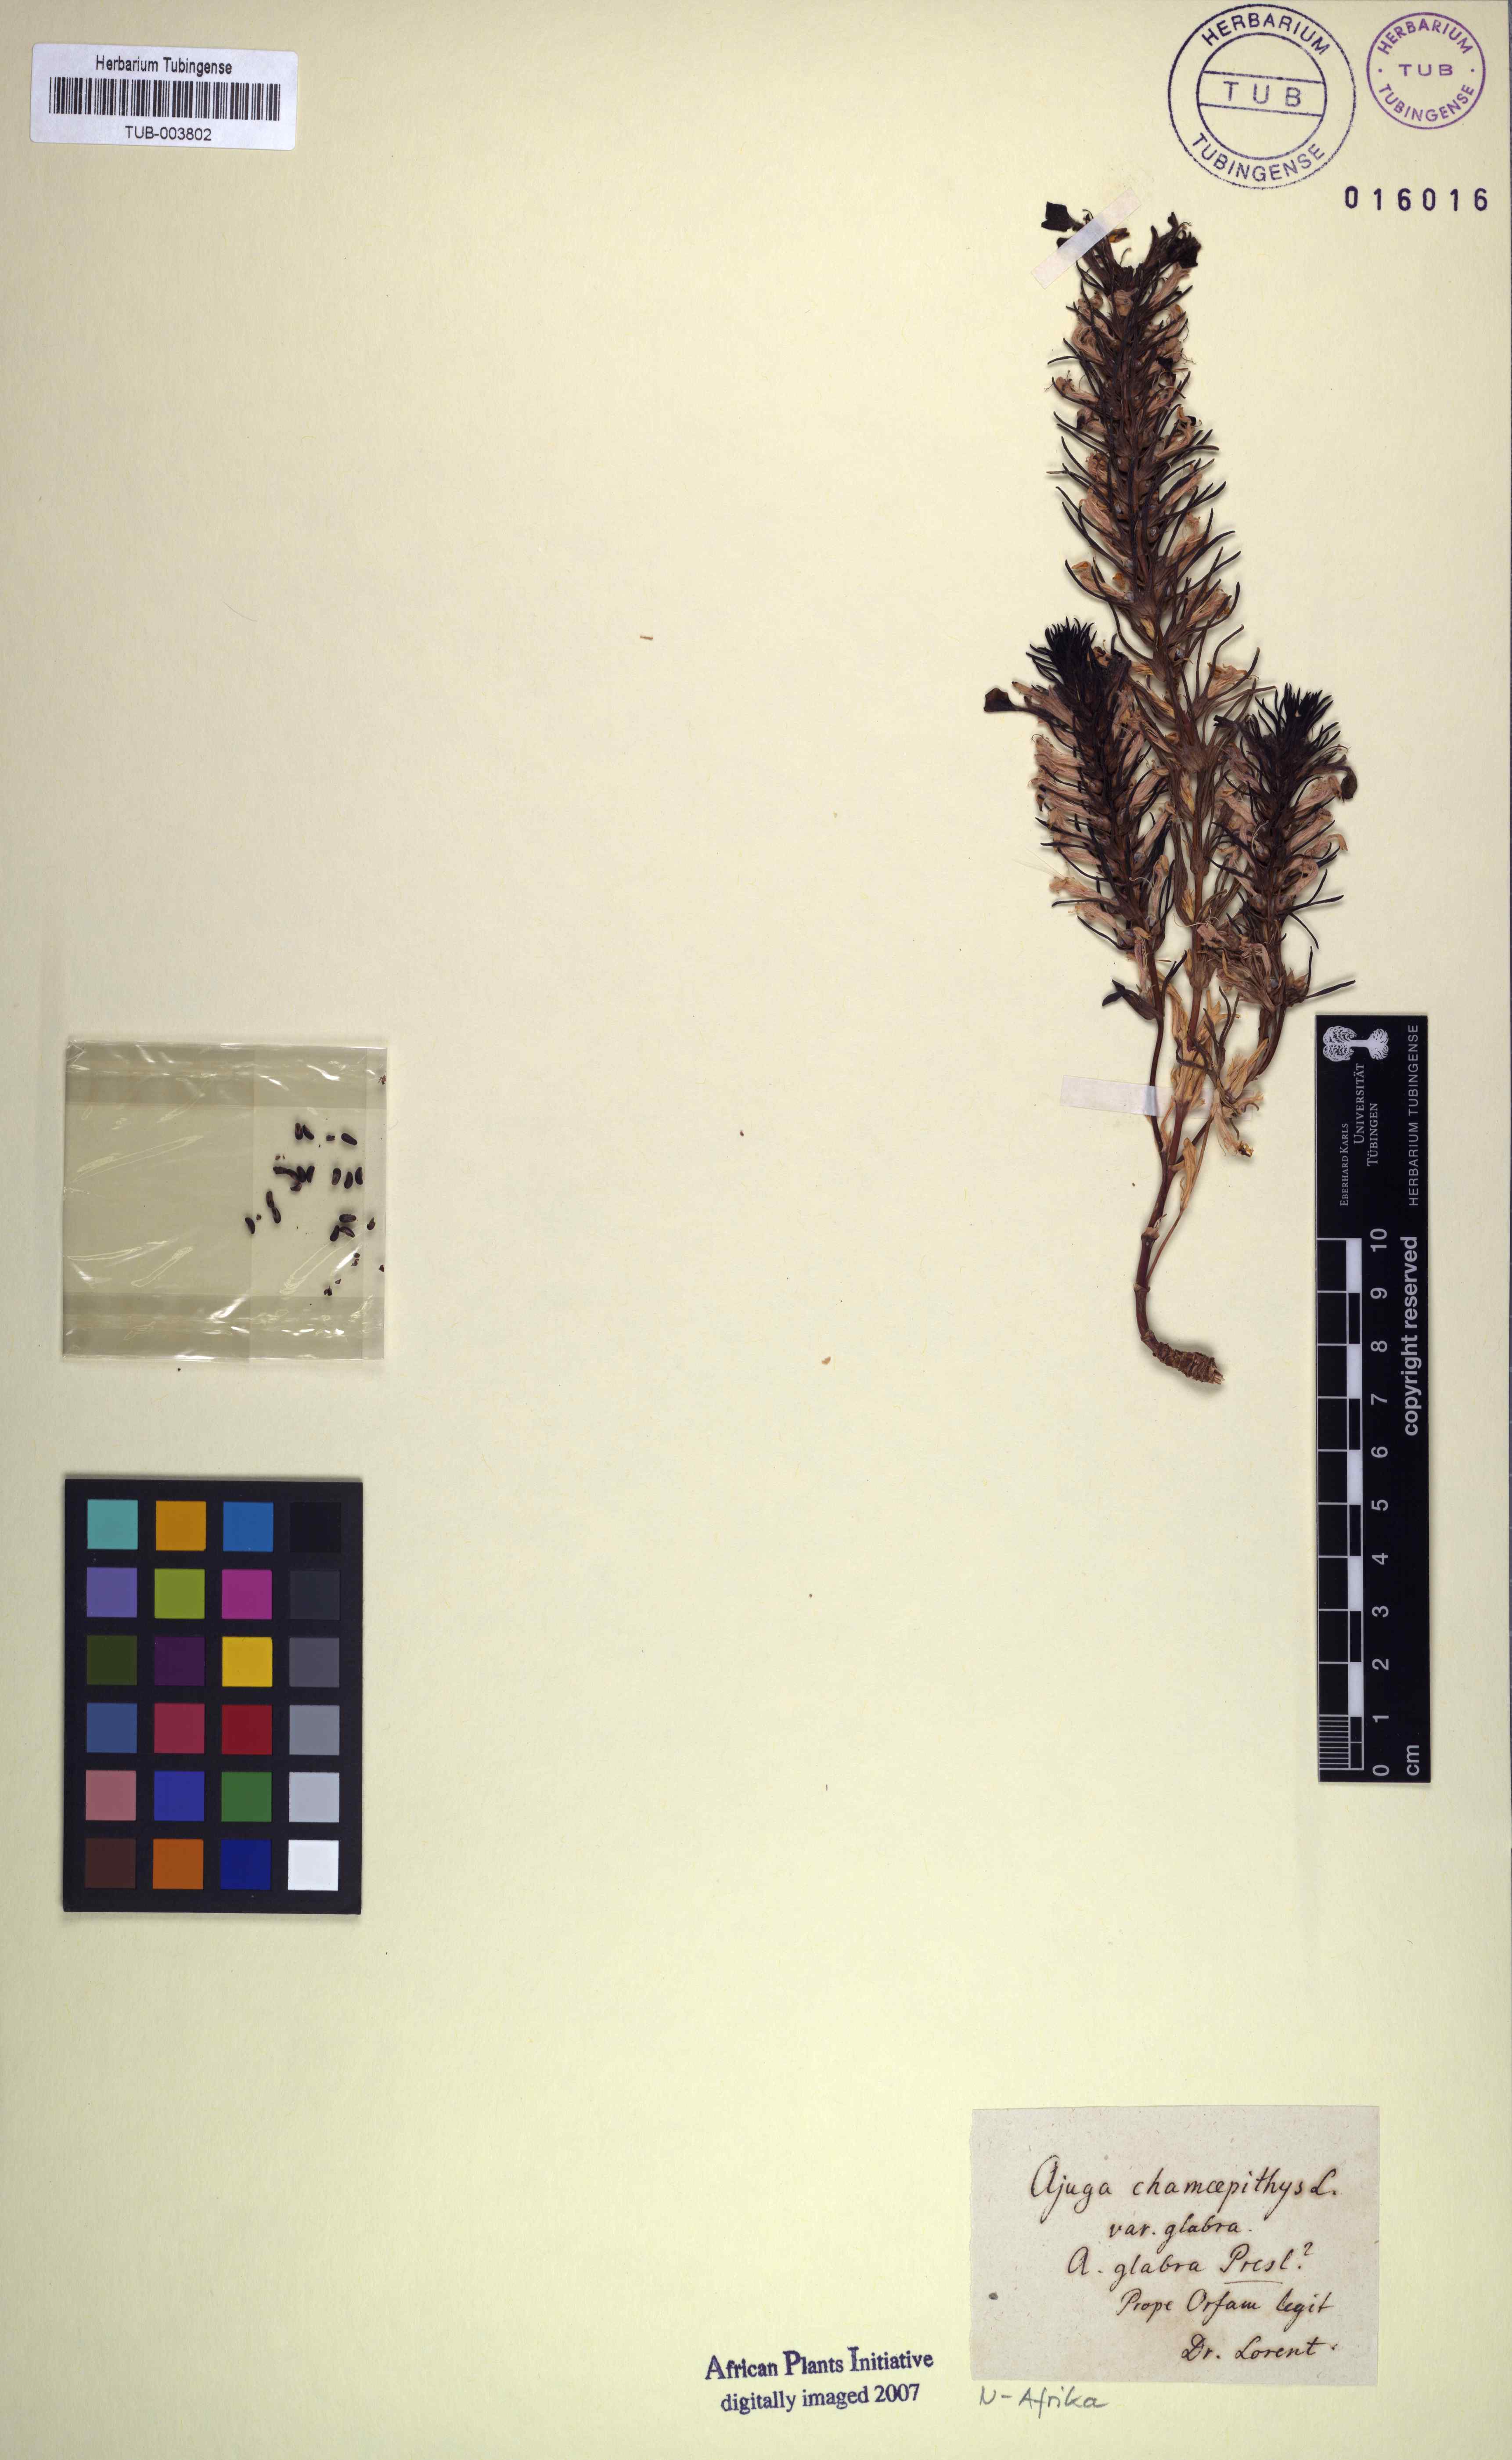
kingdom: Plantae
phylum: Tracheophyta
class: Magnoliopsida
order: Lamiales
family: Lamiaceae
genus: Ajuga
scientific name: Ajuga chamaepitys
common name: Ground-pine
